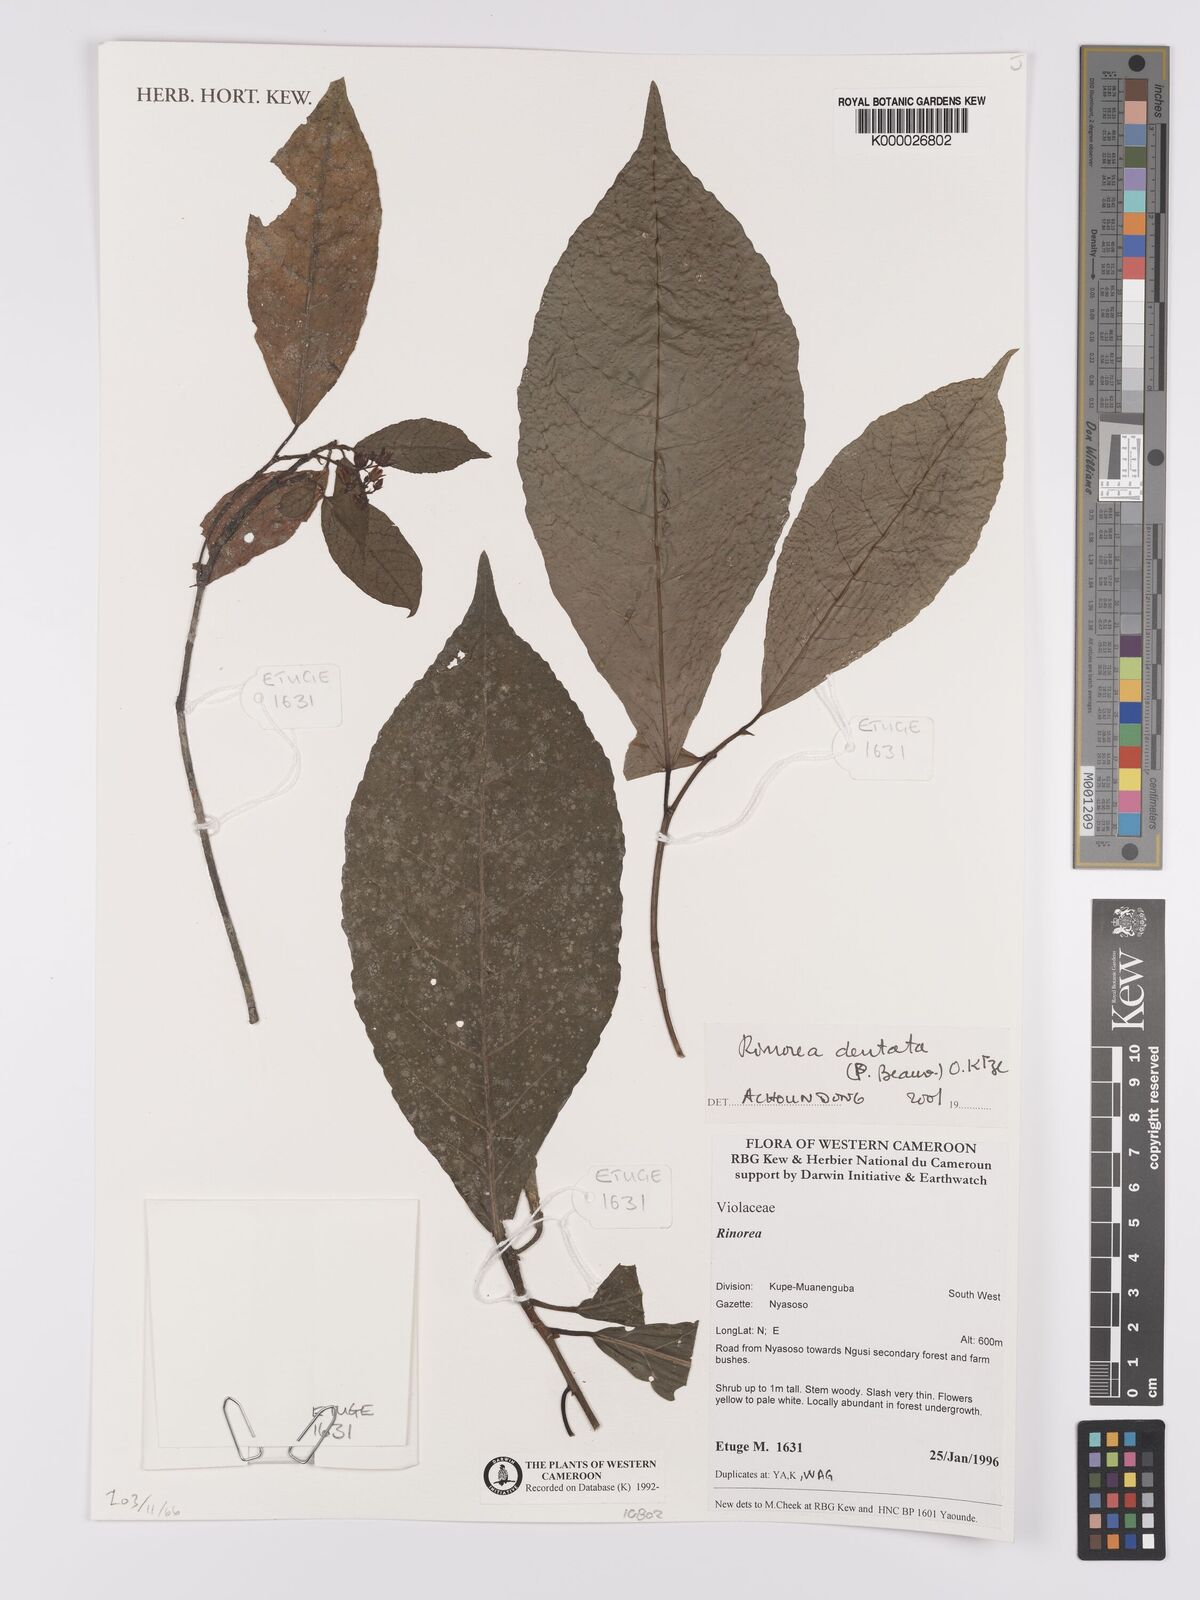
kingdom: Plantae
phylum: Tracheophyta
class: Magnoliopsida
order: Malpighiales
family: Violaceae
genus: Rinorea
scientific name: Rinorea preussii
